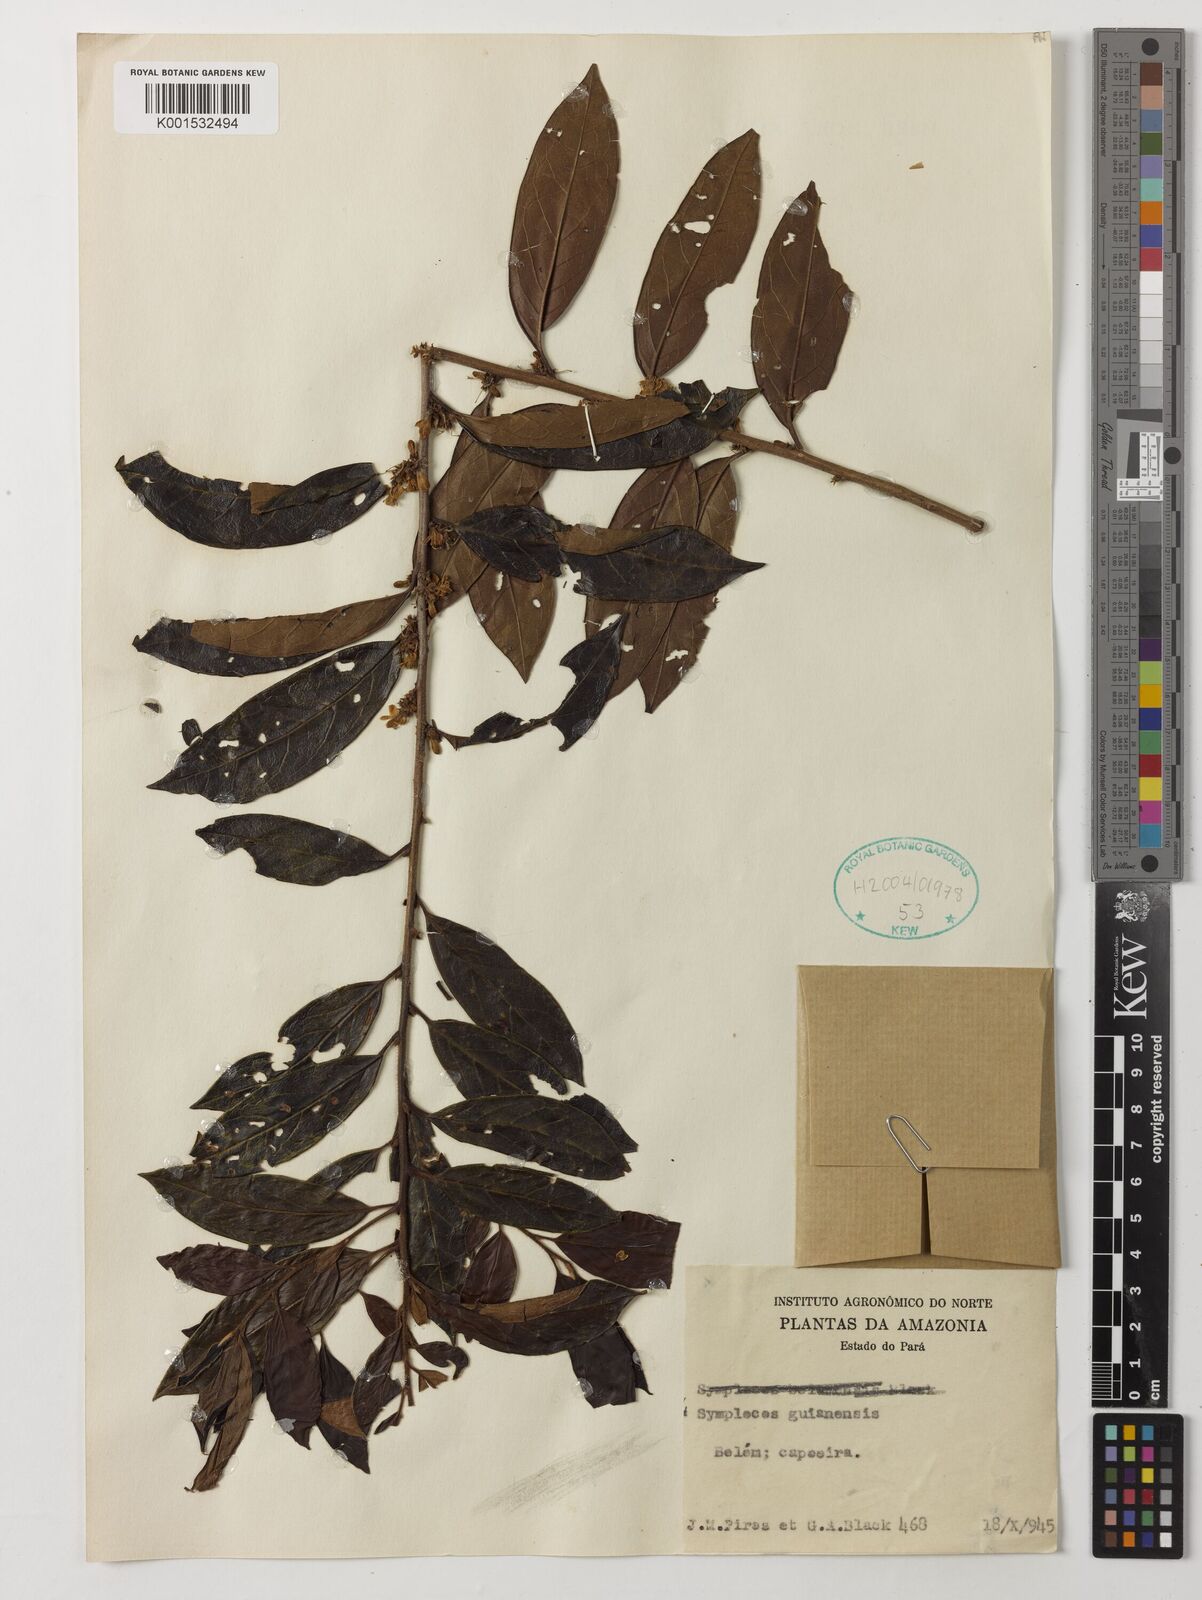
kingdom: Plantae
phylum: Tracheophyta
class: Magnoliopsida
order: Ericales
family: Symplocaceae
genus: Symplocos
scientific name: Symplocos guianensis
